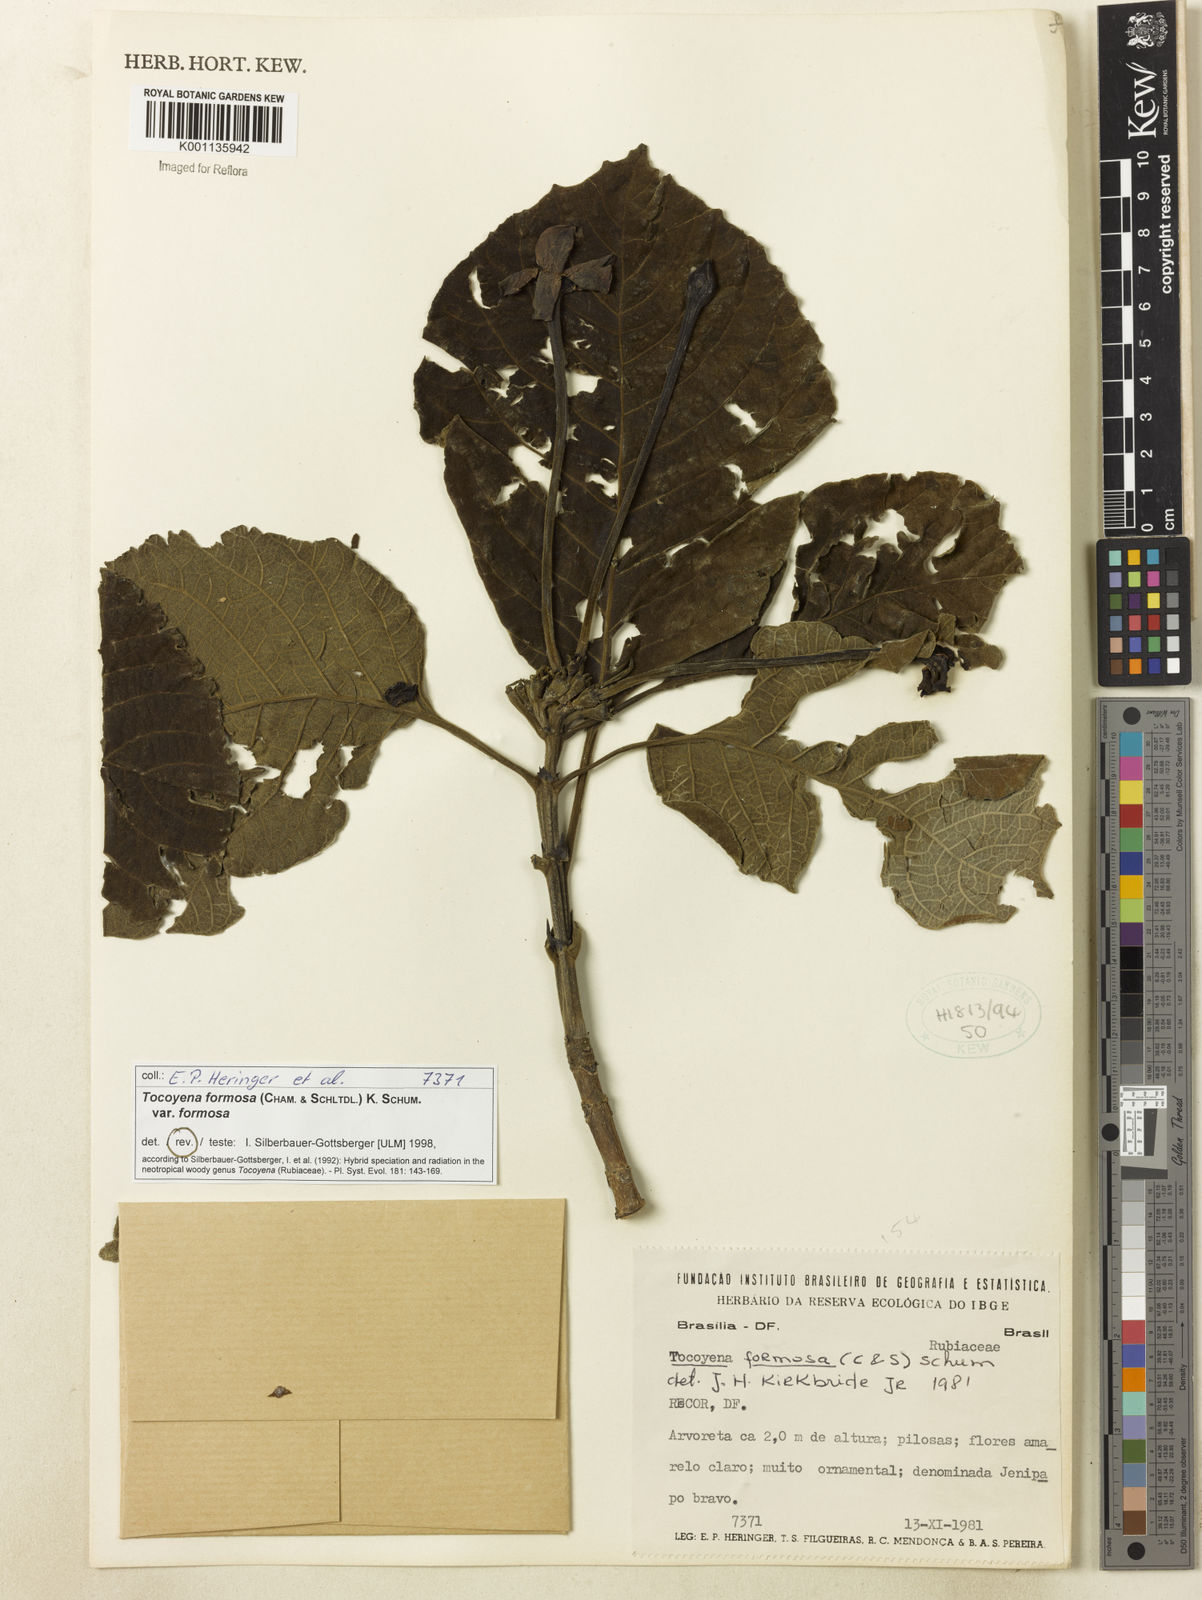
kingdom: Plantae
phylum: Tracheophyta
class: Magnoliopsida
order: Gentianales
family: Rubiaceae
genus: Tocoyena
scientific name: Tocoyena formosa
